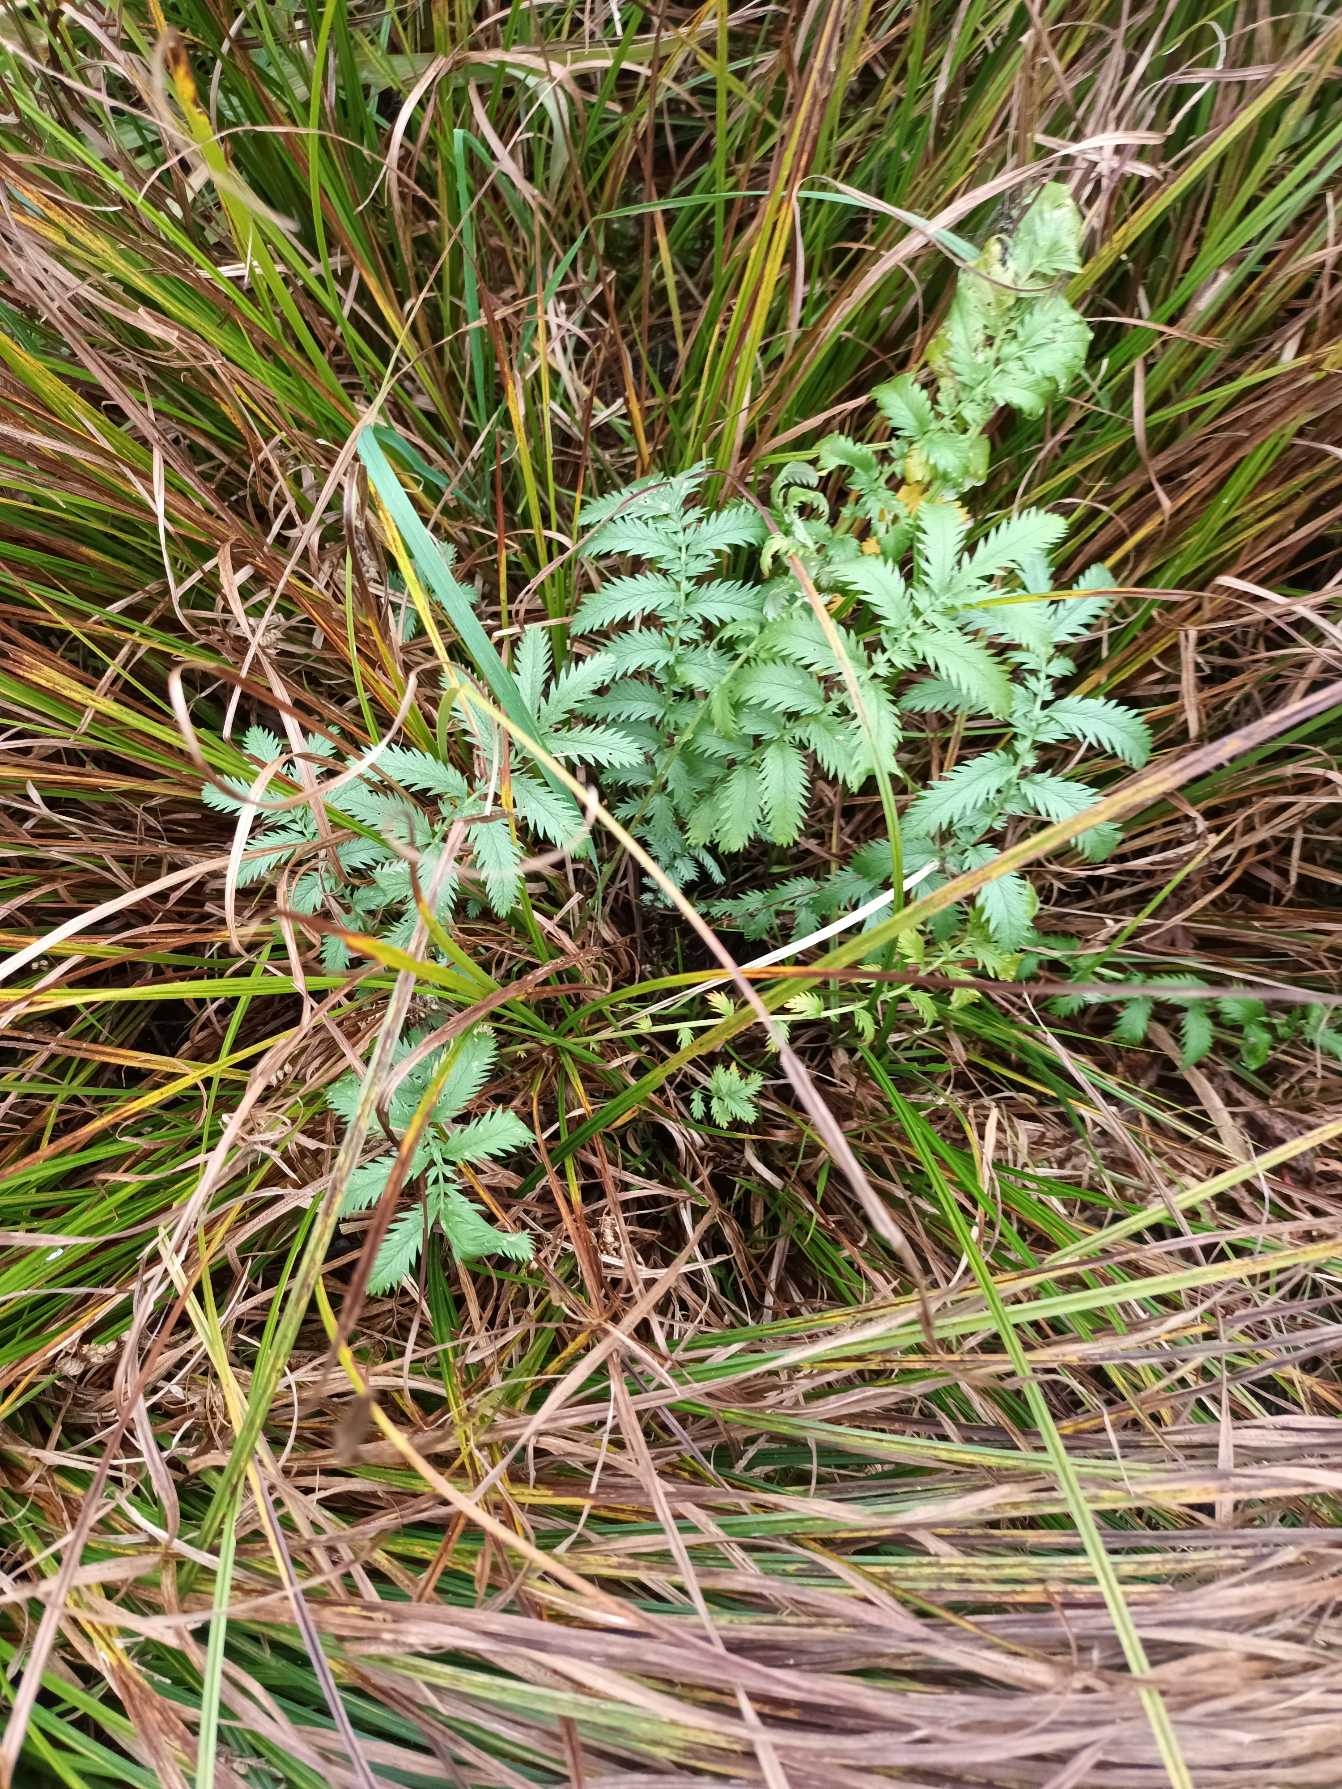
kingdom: Plantae
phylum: Tracheophyta
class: Magnoliopsida
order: Rosales
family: Rosaceae
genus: Argentina
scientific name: Argentina anserina
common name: Gåsepotentil
